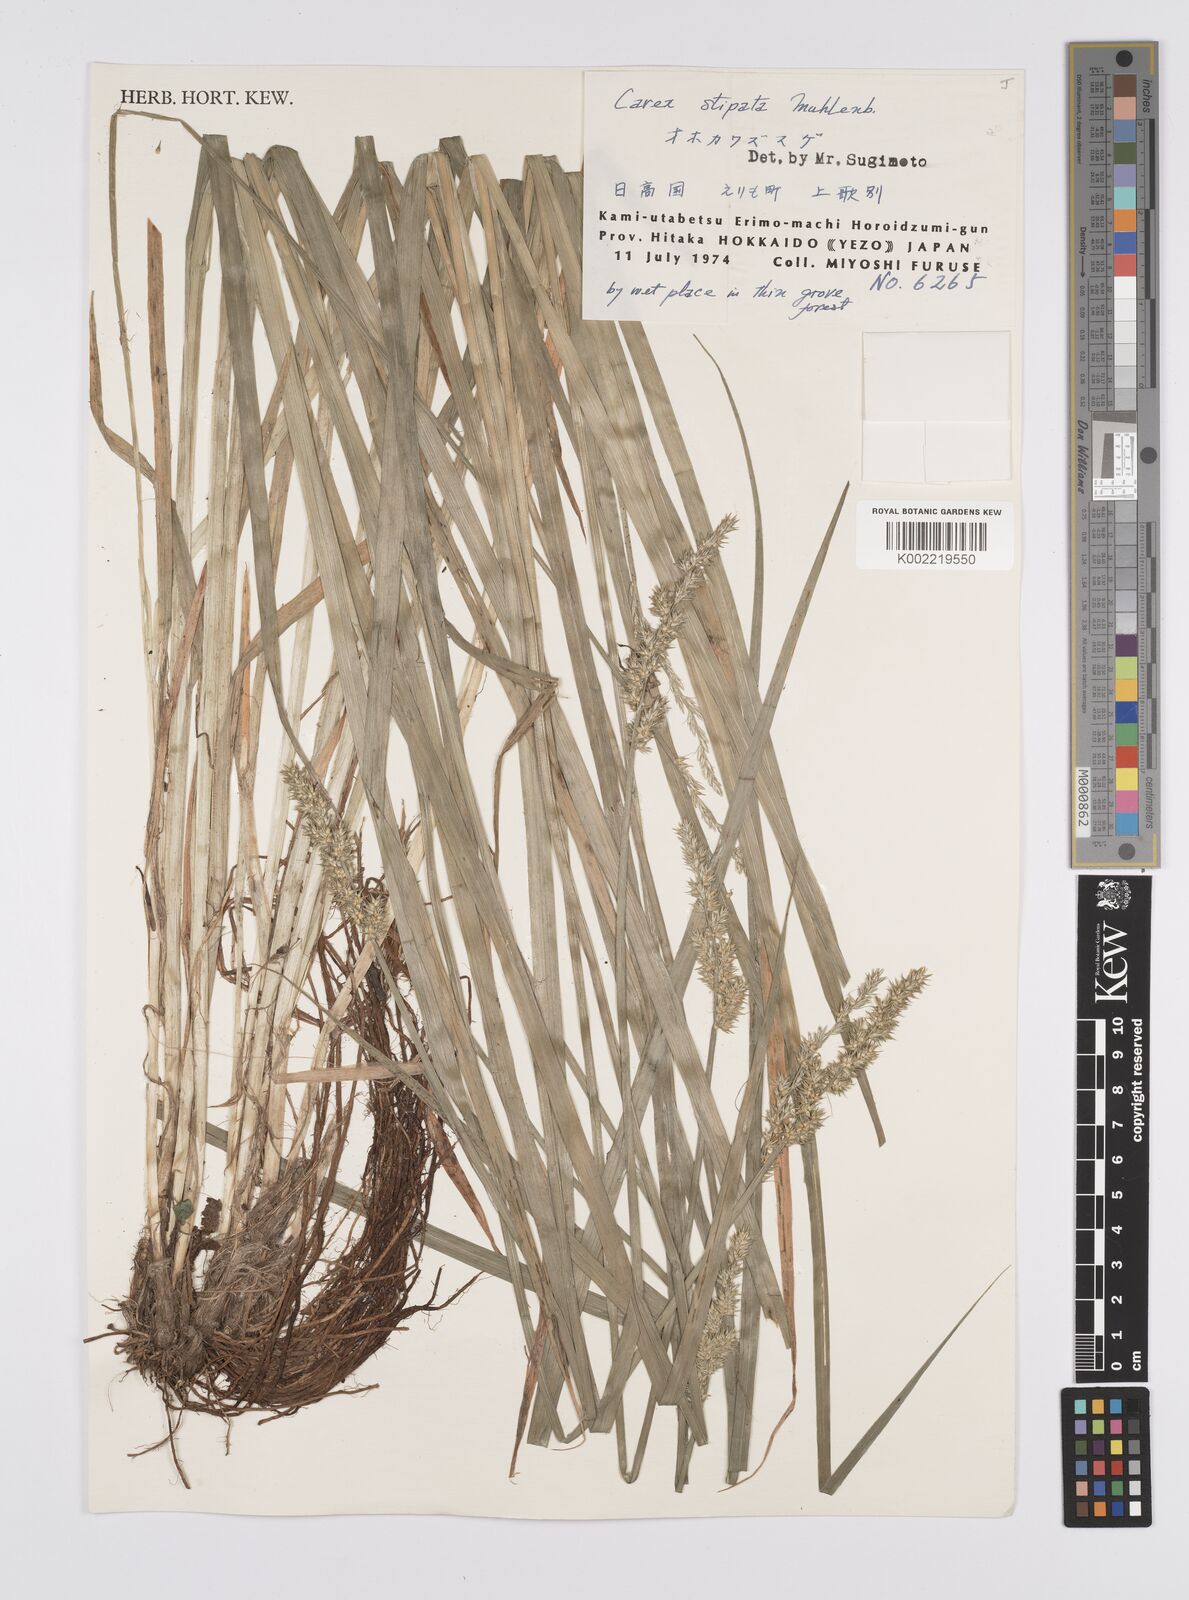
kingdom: Plantae
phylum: Tracheophyta
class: Liliopsida
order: Poales
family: Cyperaceae
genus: Carex
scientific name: Carex stipata
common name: Awl-fruited sedge
